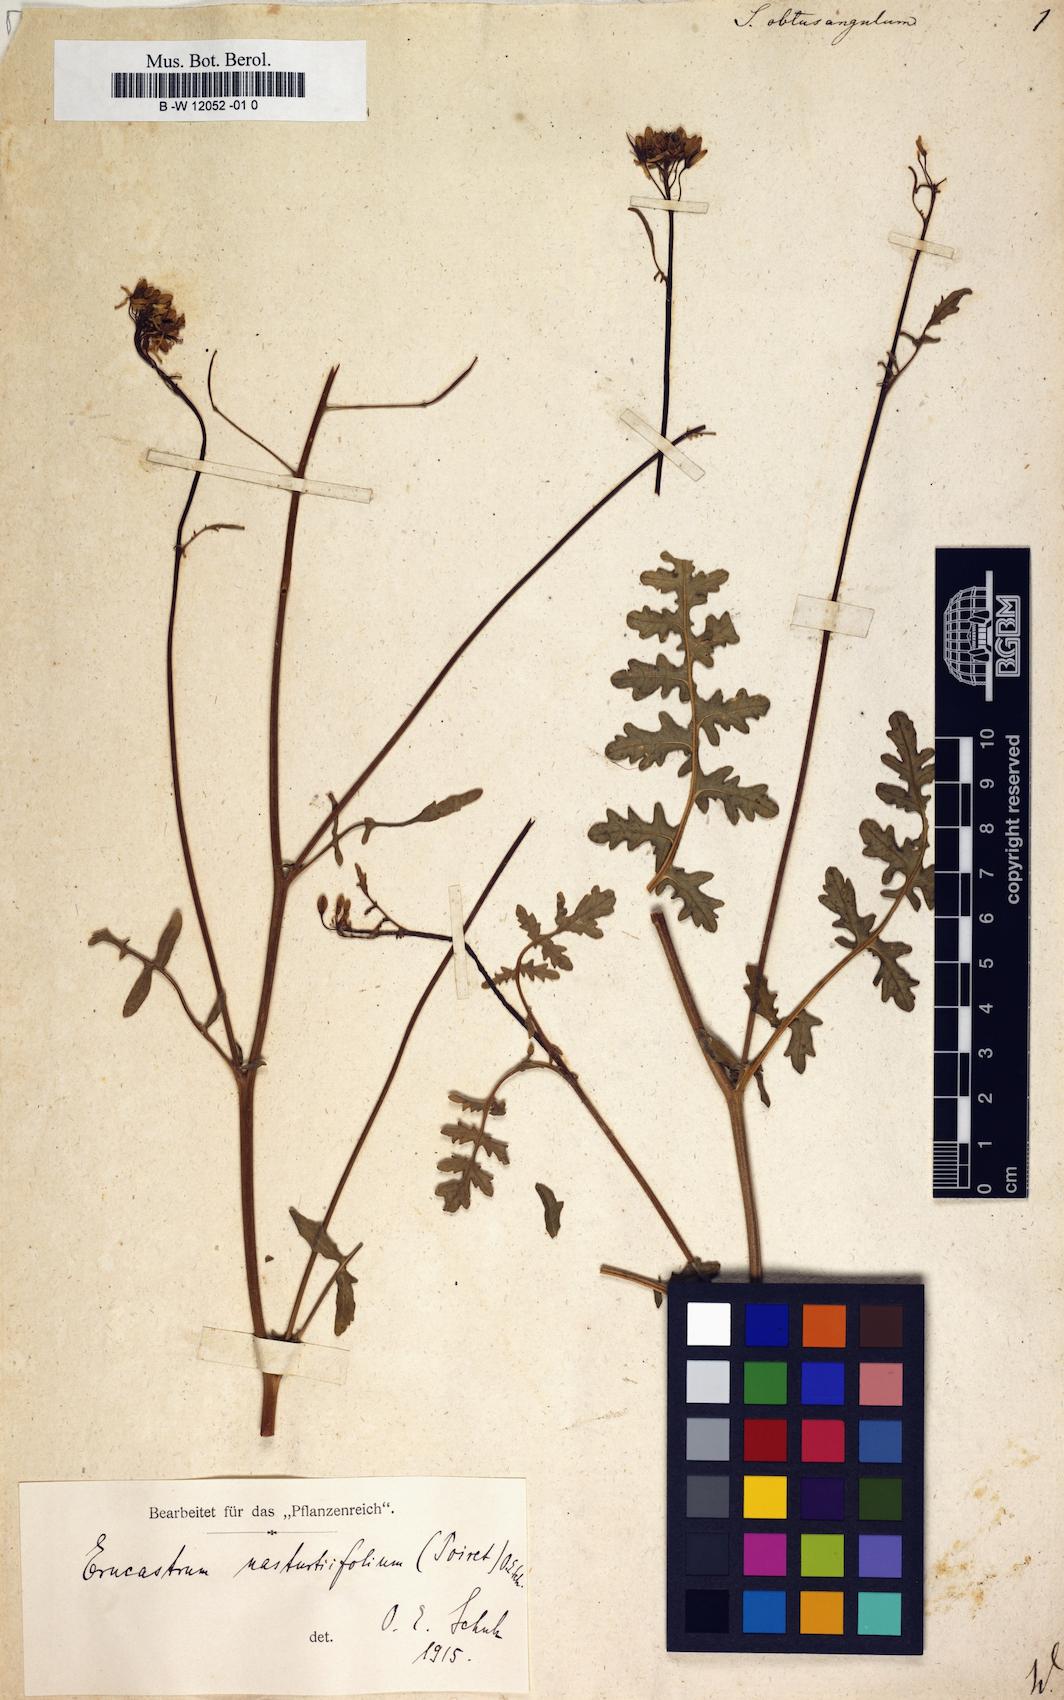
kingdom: Plantae
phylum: Tracheophyta
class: Magnoliopsida
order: Brassicales
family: Brassicaceae
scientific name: Brassicaceae
